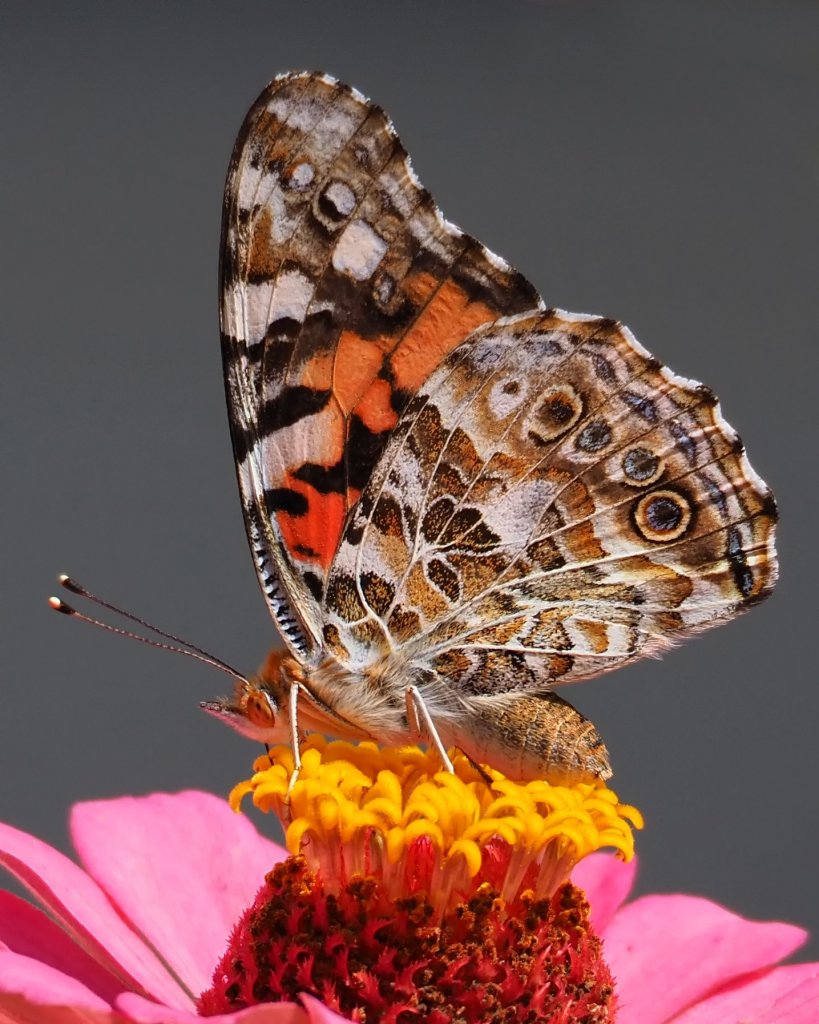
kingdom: Animalia
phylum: Arthropoda
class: Insecta
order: Lepidoptera
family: Nymphalidae
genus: Vanessa
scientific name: Vanessa cardui
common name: Painted Lady
